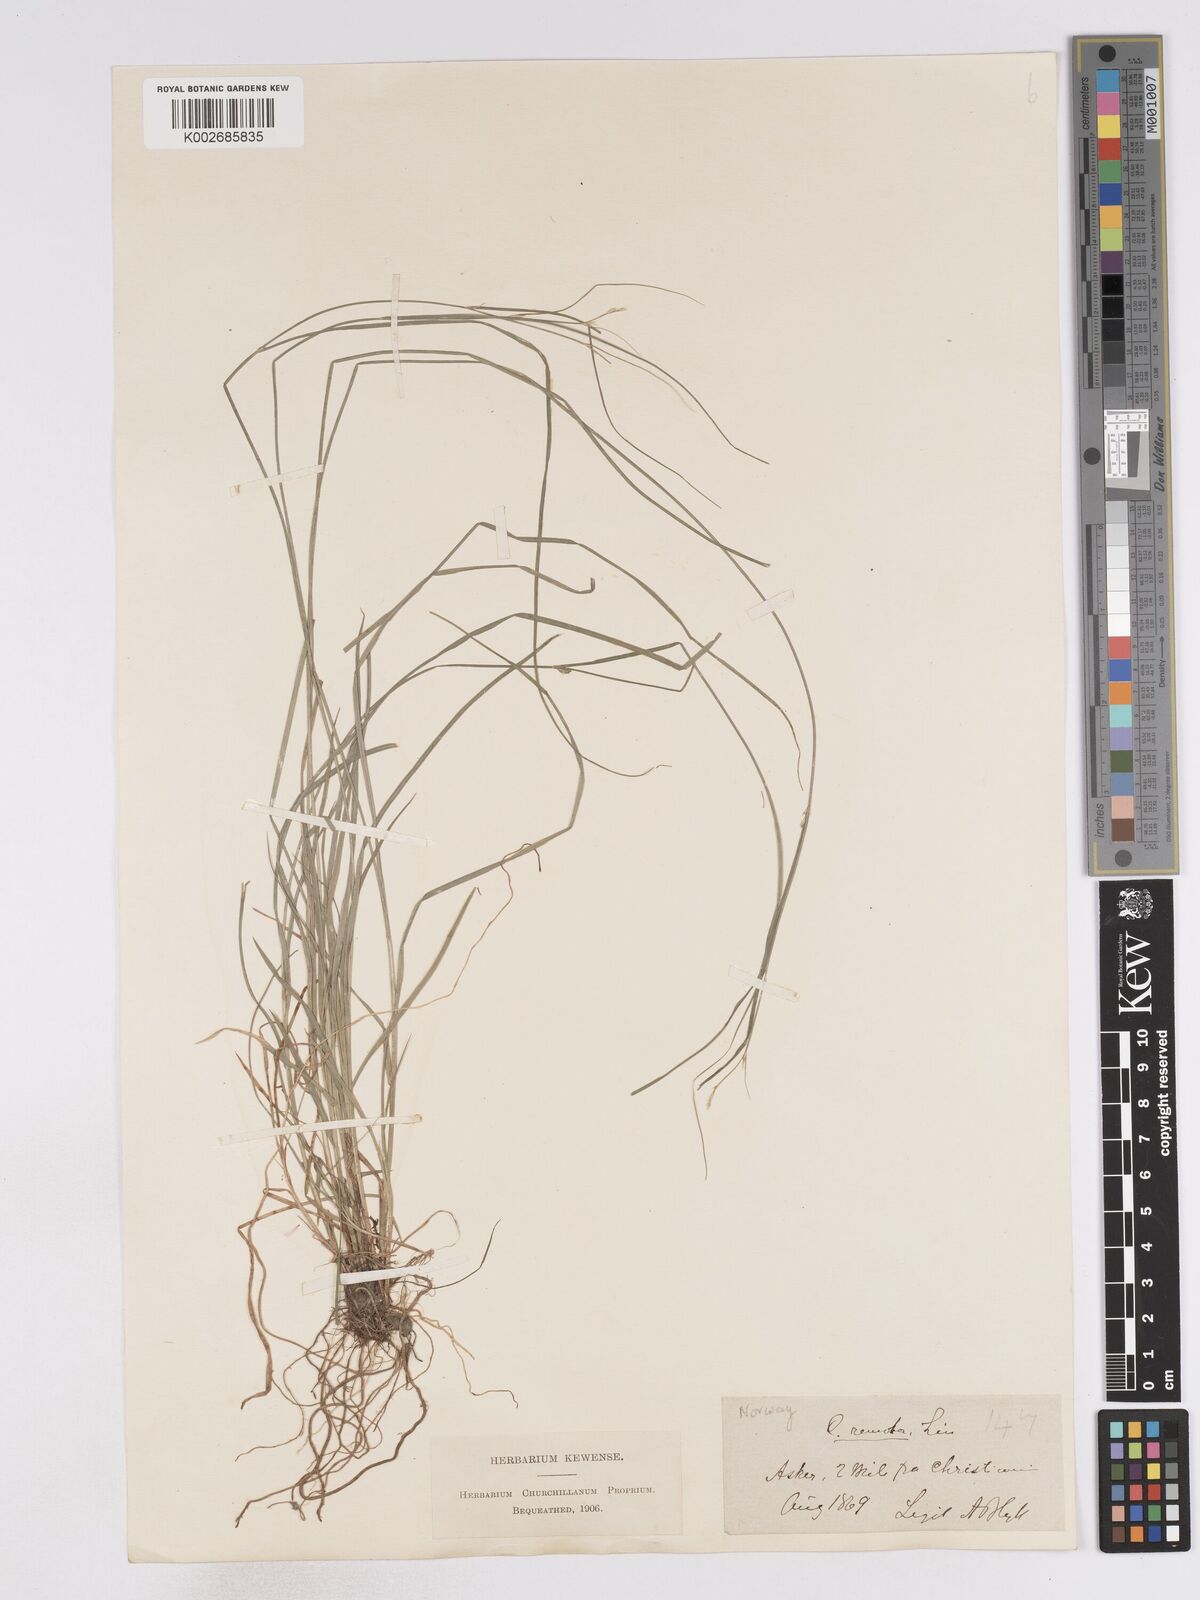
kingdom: Plantae
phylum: Tracheophyta
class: Liliopsida
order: Poales
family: Cyperaceae
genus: Carex
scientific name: Carex remota
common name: Remote sedge
